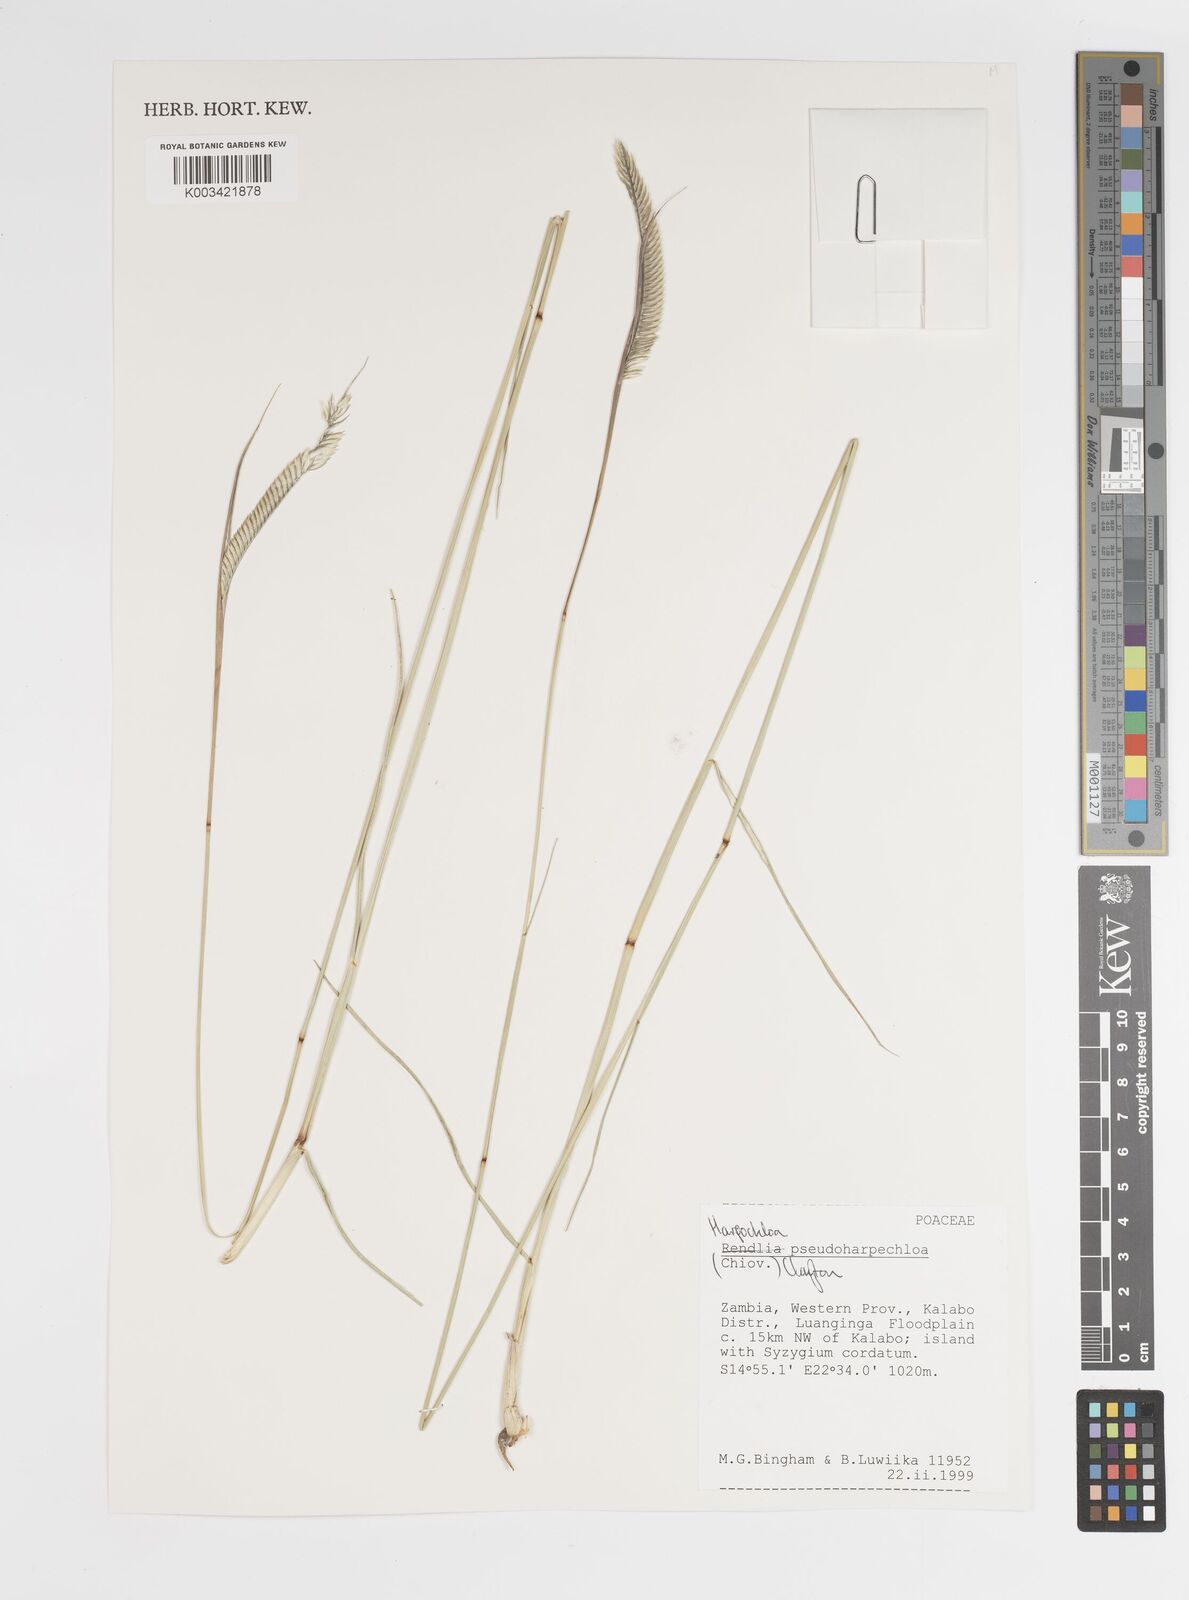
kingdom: Plantae
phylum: Tracheophyta
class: Liliopsida
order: Poales
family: Poaceae
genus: Harpochloa
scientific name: Harpochloa pseudoharpechloa
